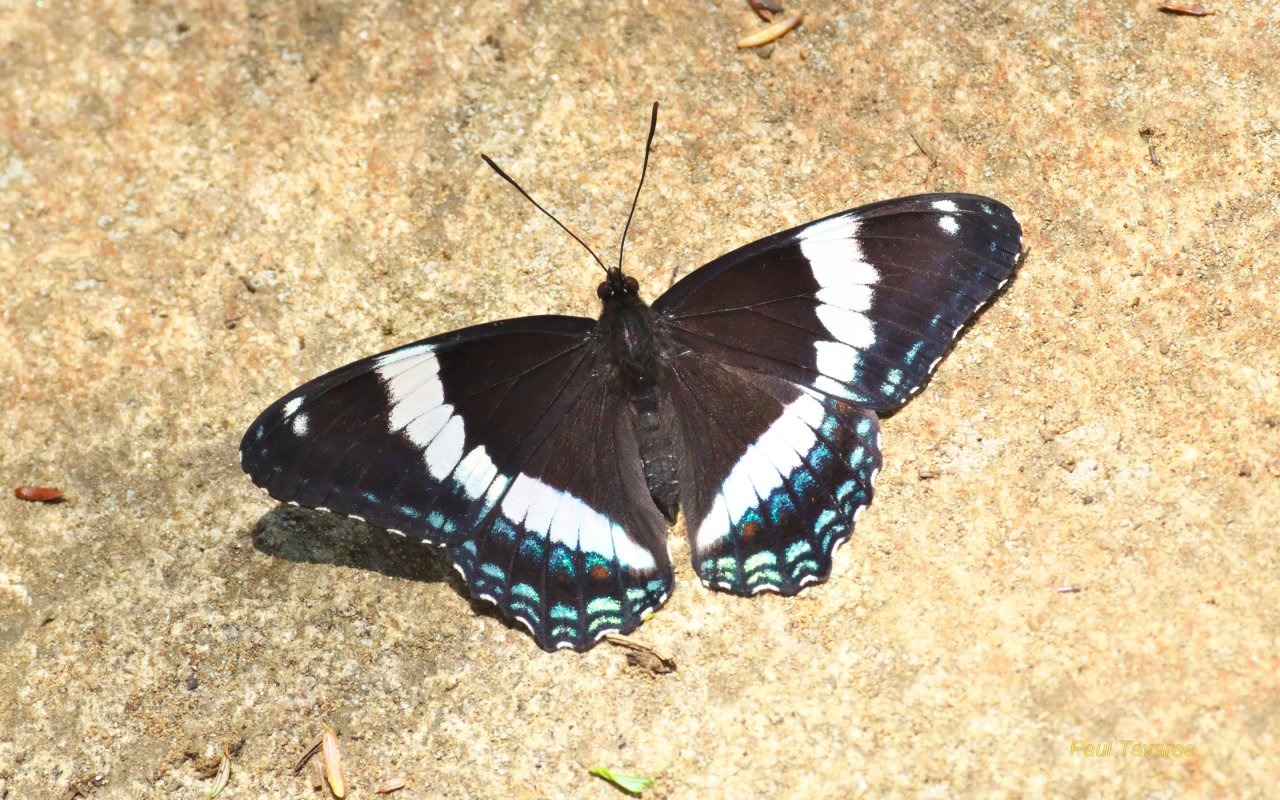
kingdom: Animalia
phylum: Arthropoda
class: Insecta
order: Lepidoptera
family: Nymphalidae
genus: Limenitis
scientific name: Limenitis arthemis
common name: Red-spotted Admiral
